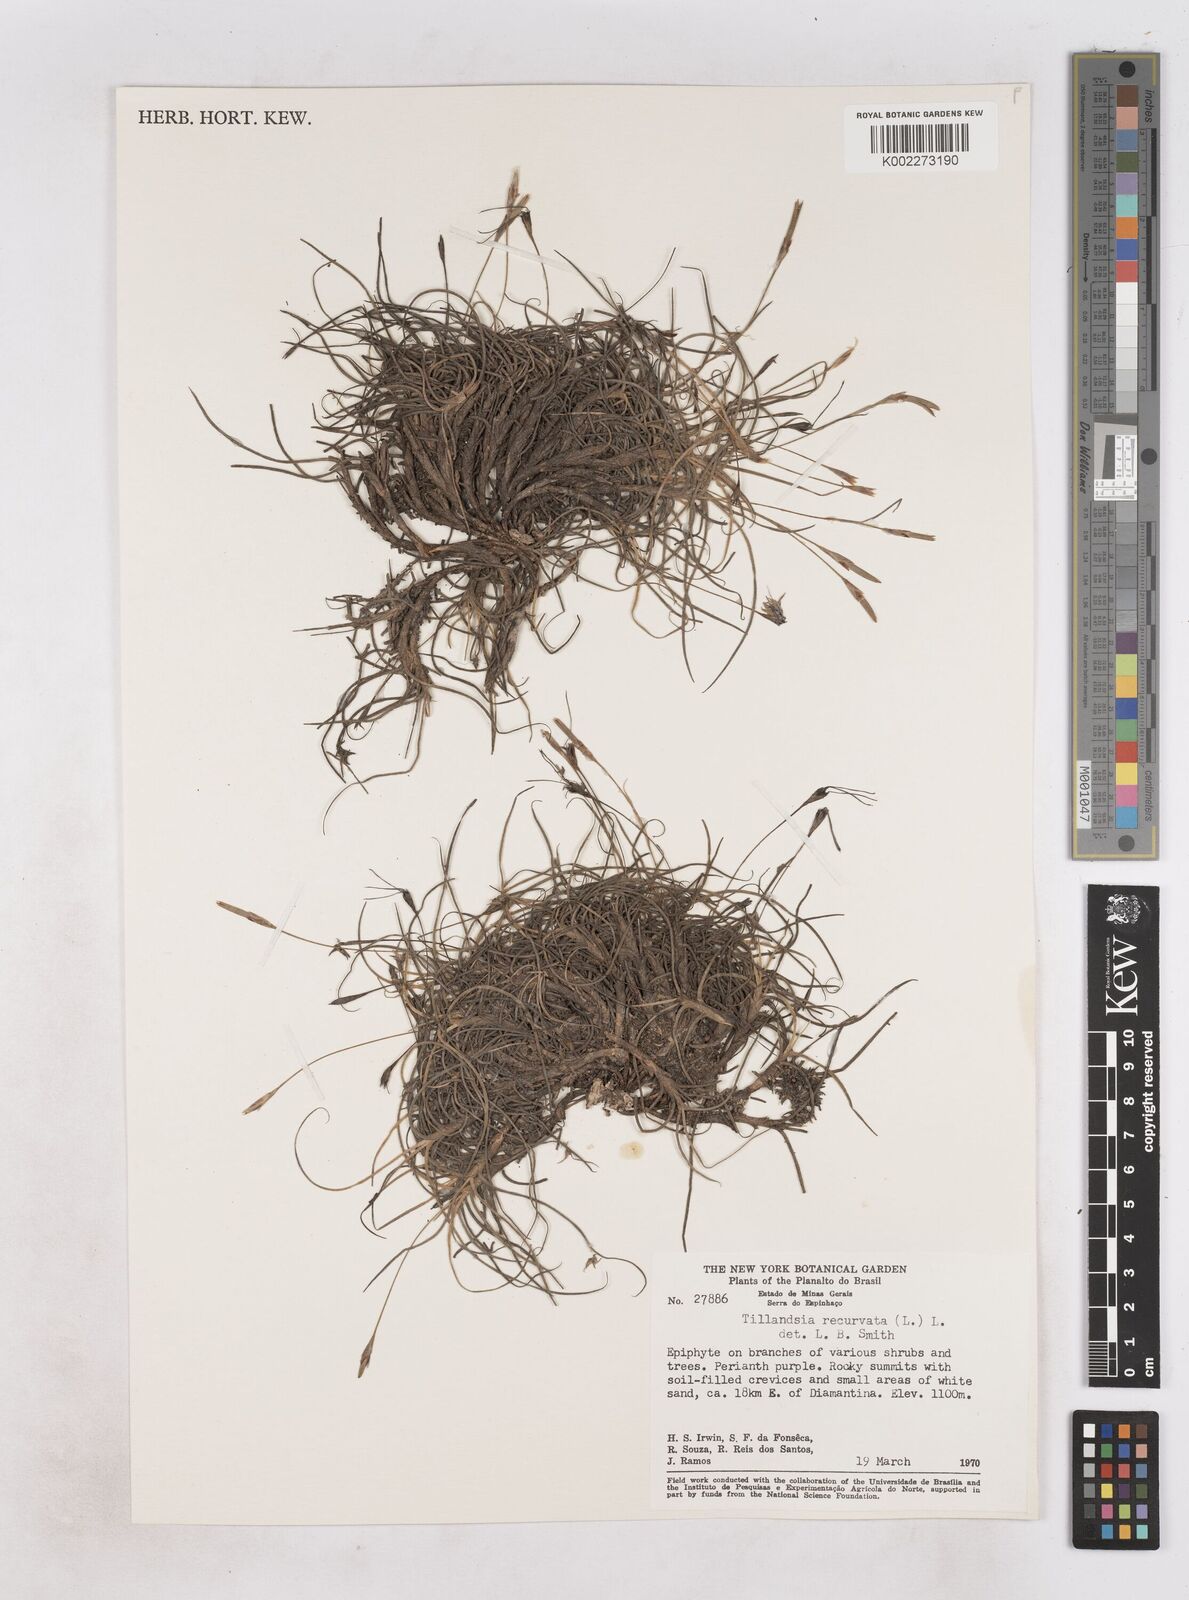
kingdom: Plantae
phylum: Tracheophyta
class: Liliopsida
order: Poales
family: Bromeliaceae
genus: Tillandsia
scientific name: Tillandsia recurvata
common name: Small ballmoss
